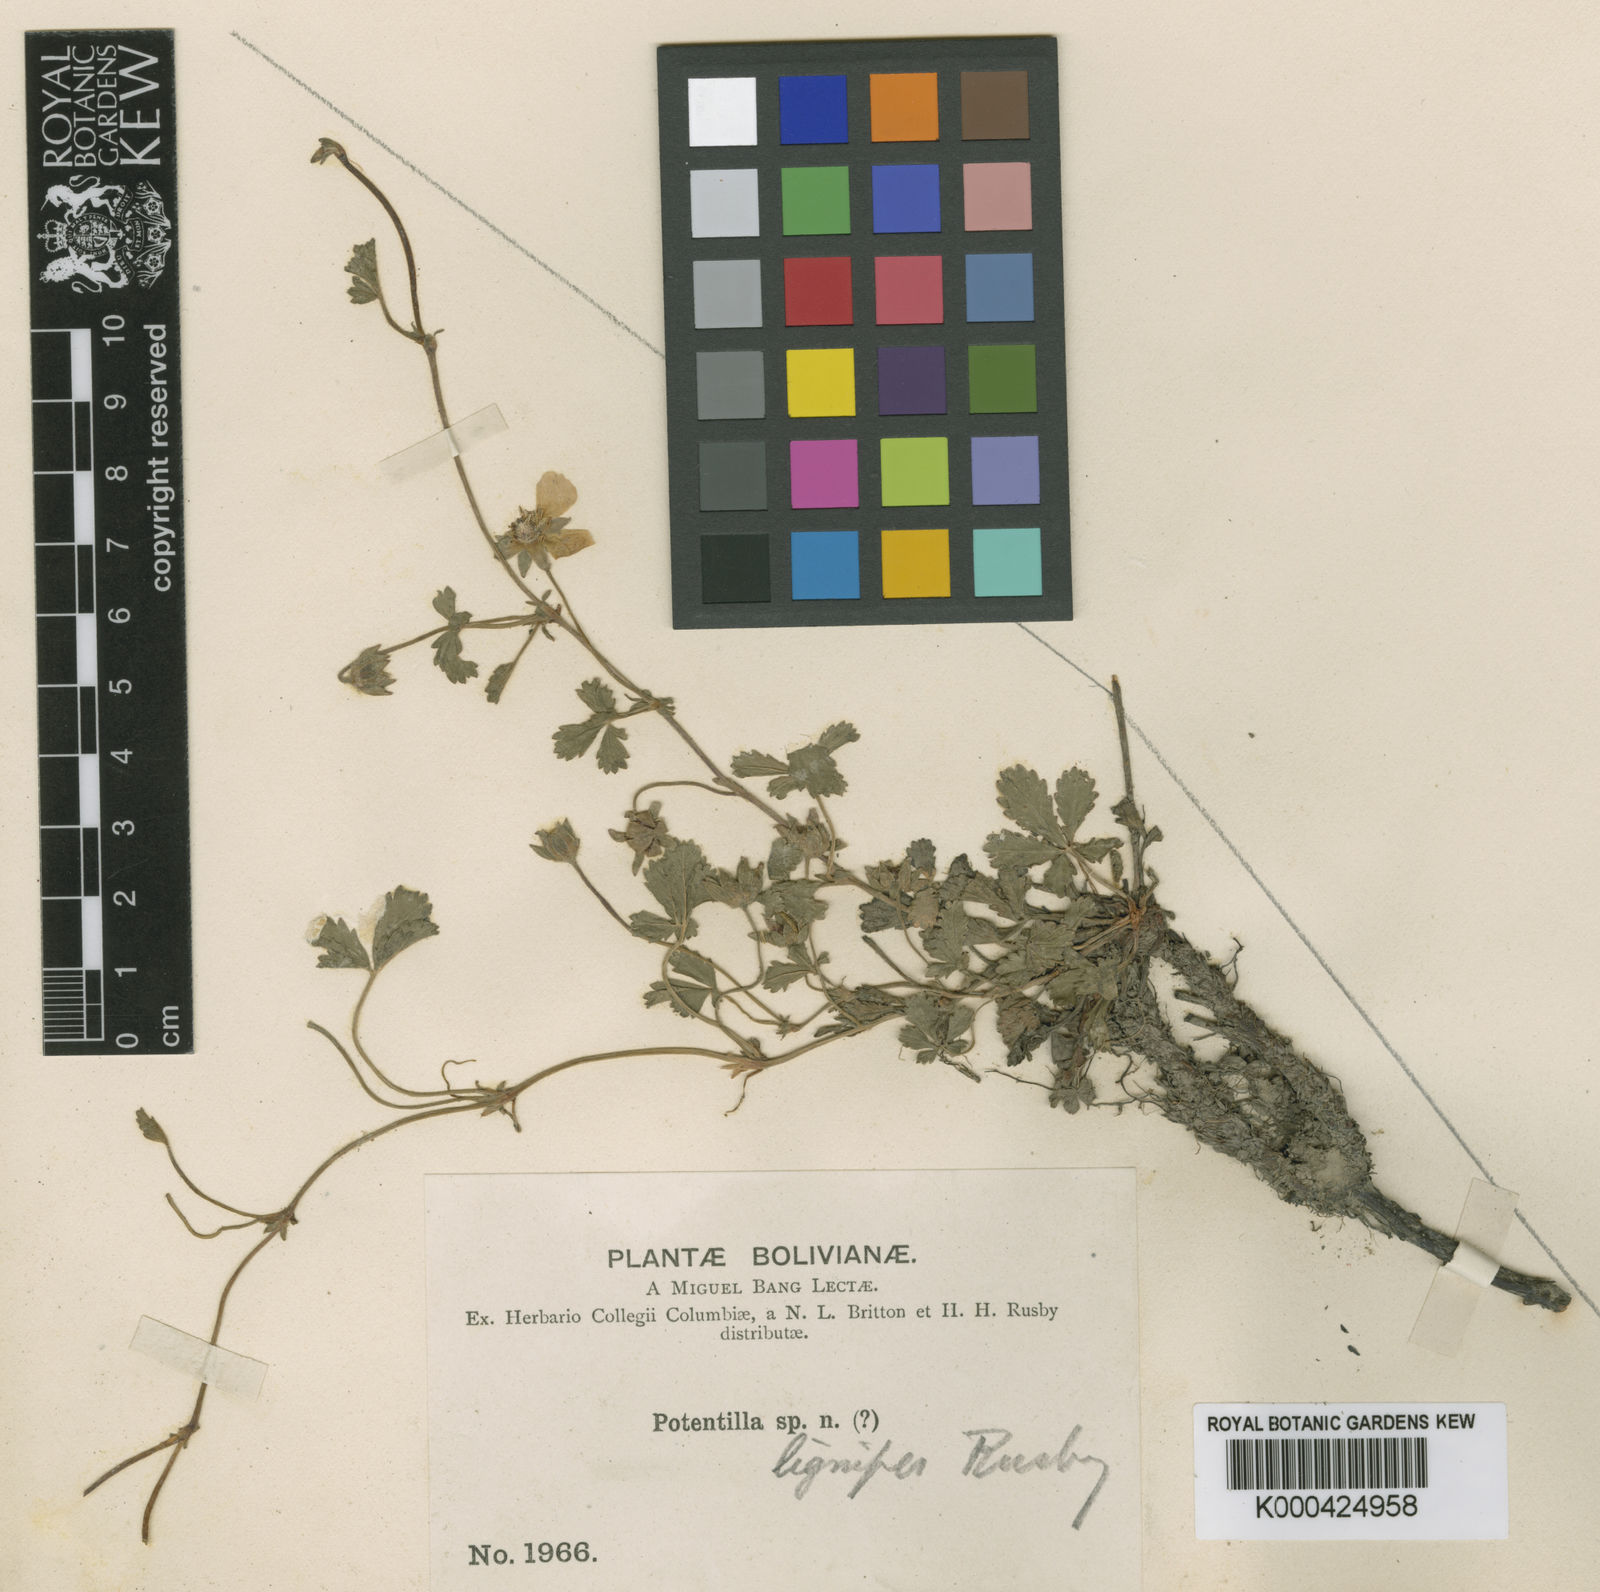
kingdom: Plantae
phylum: Tracheophyta
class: Magnoliopsida
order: Rosales
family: Rosaceae
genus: Potentilla
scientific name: Potentilla lignipes
